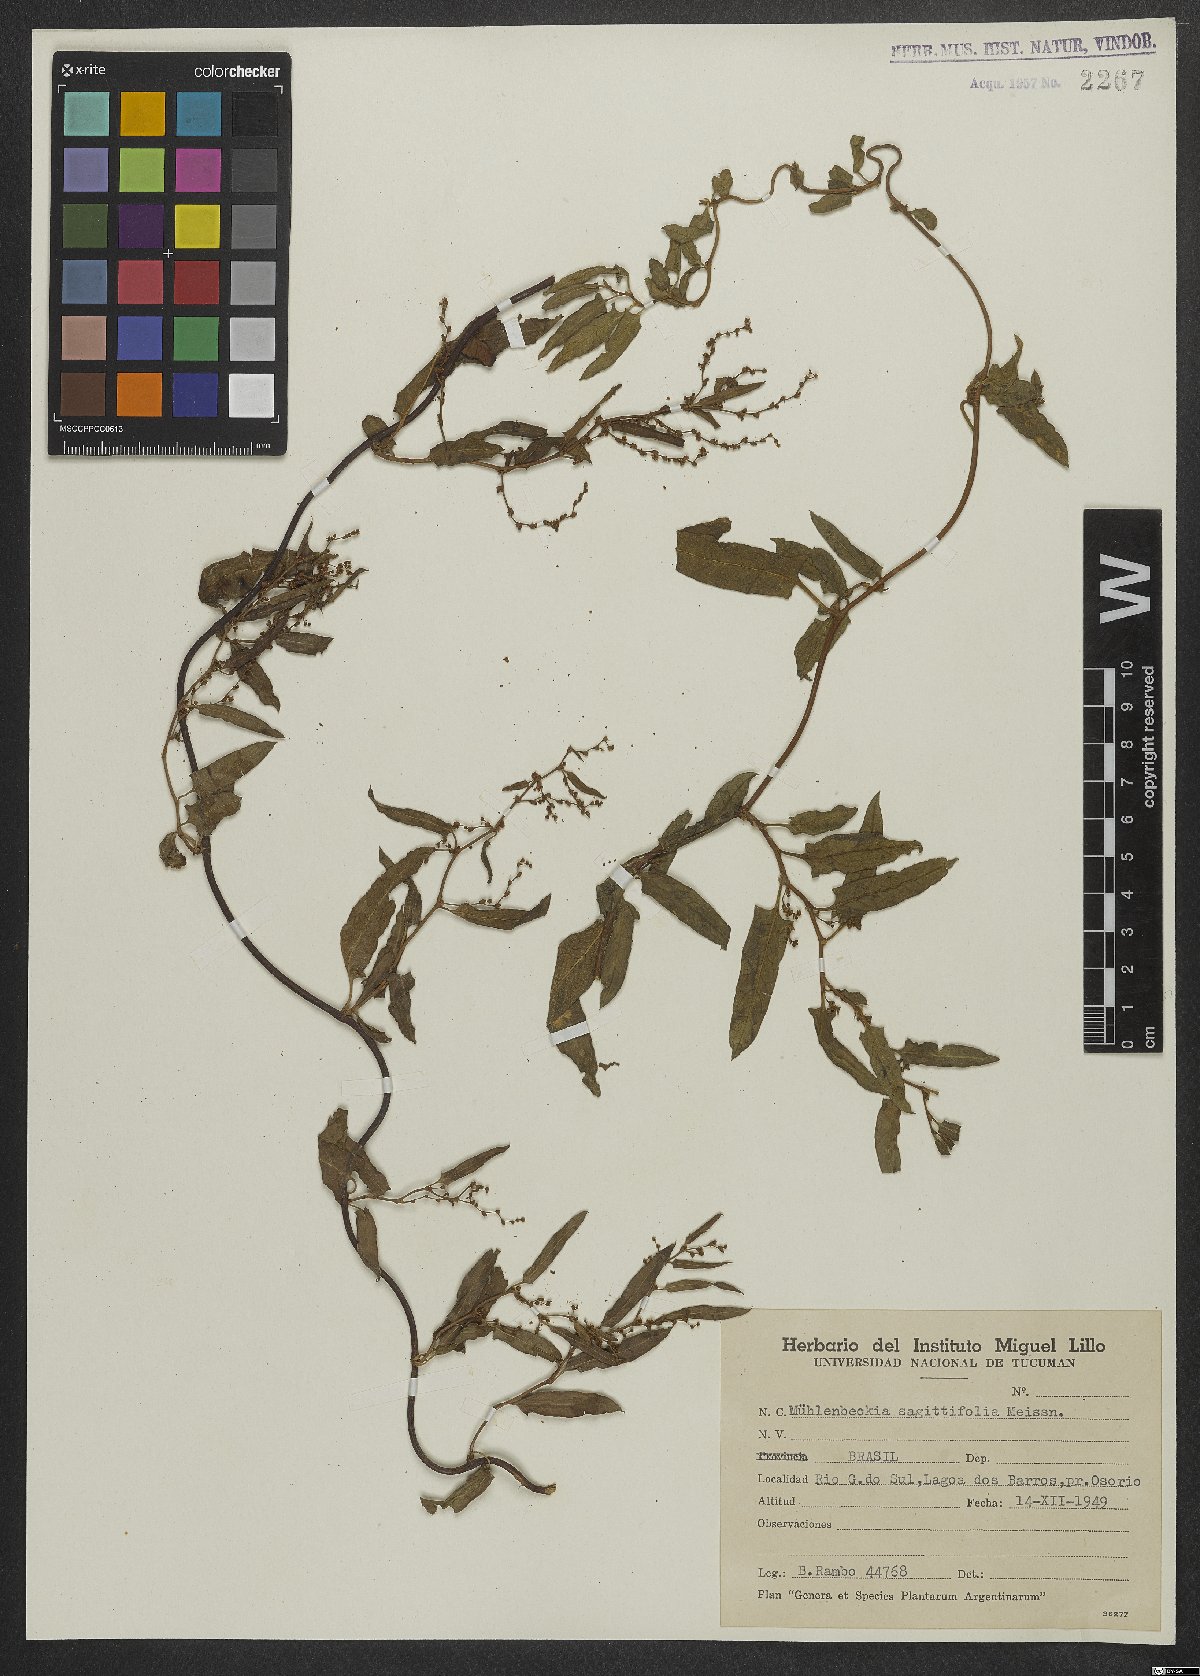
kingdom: Plantae
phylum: Tracheophyta
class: Magnoliopsida
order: Caryophyllales
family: Polygonaceae
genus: Muehlenbeckia
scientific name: Muehlenbeckia sagittifolia
